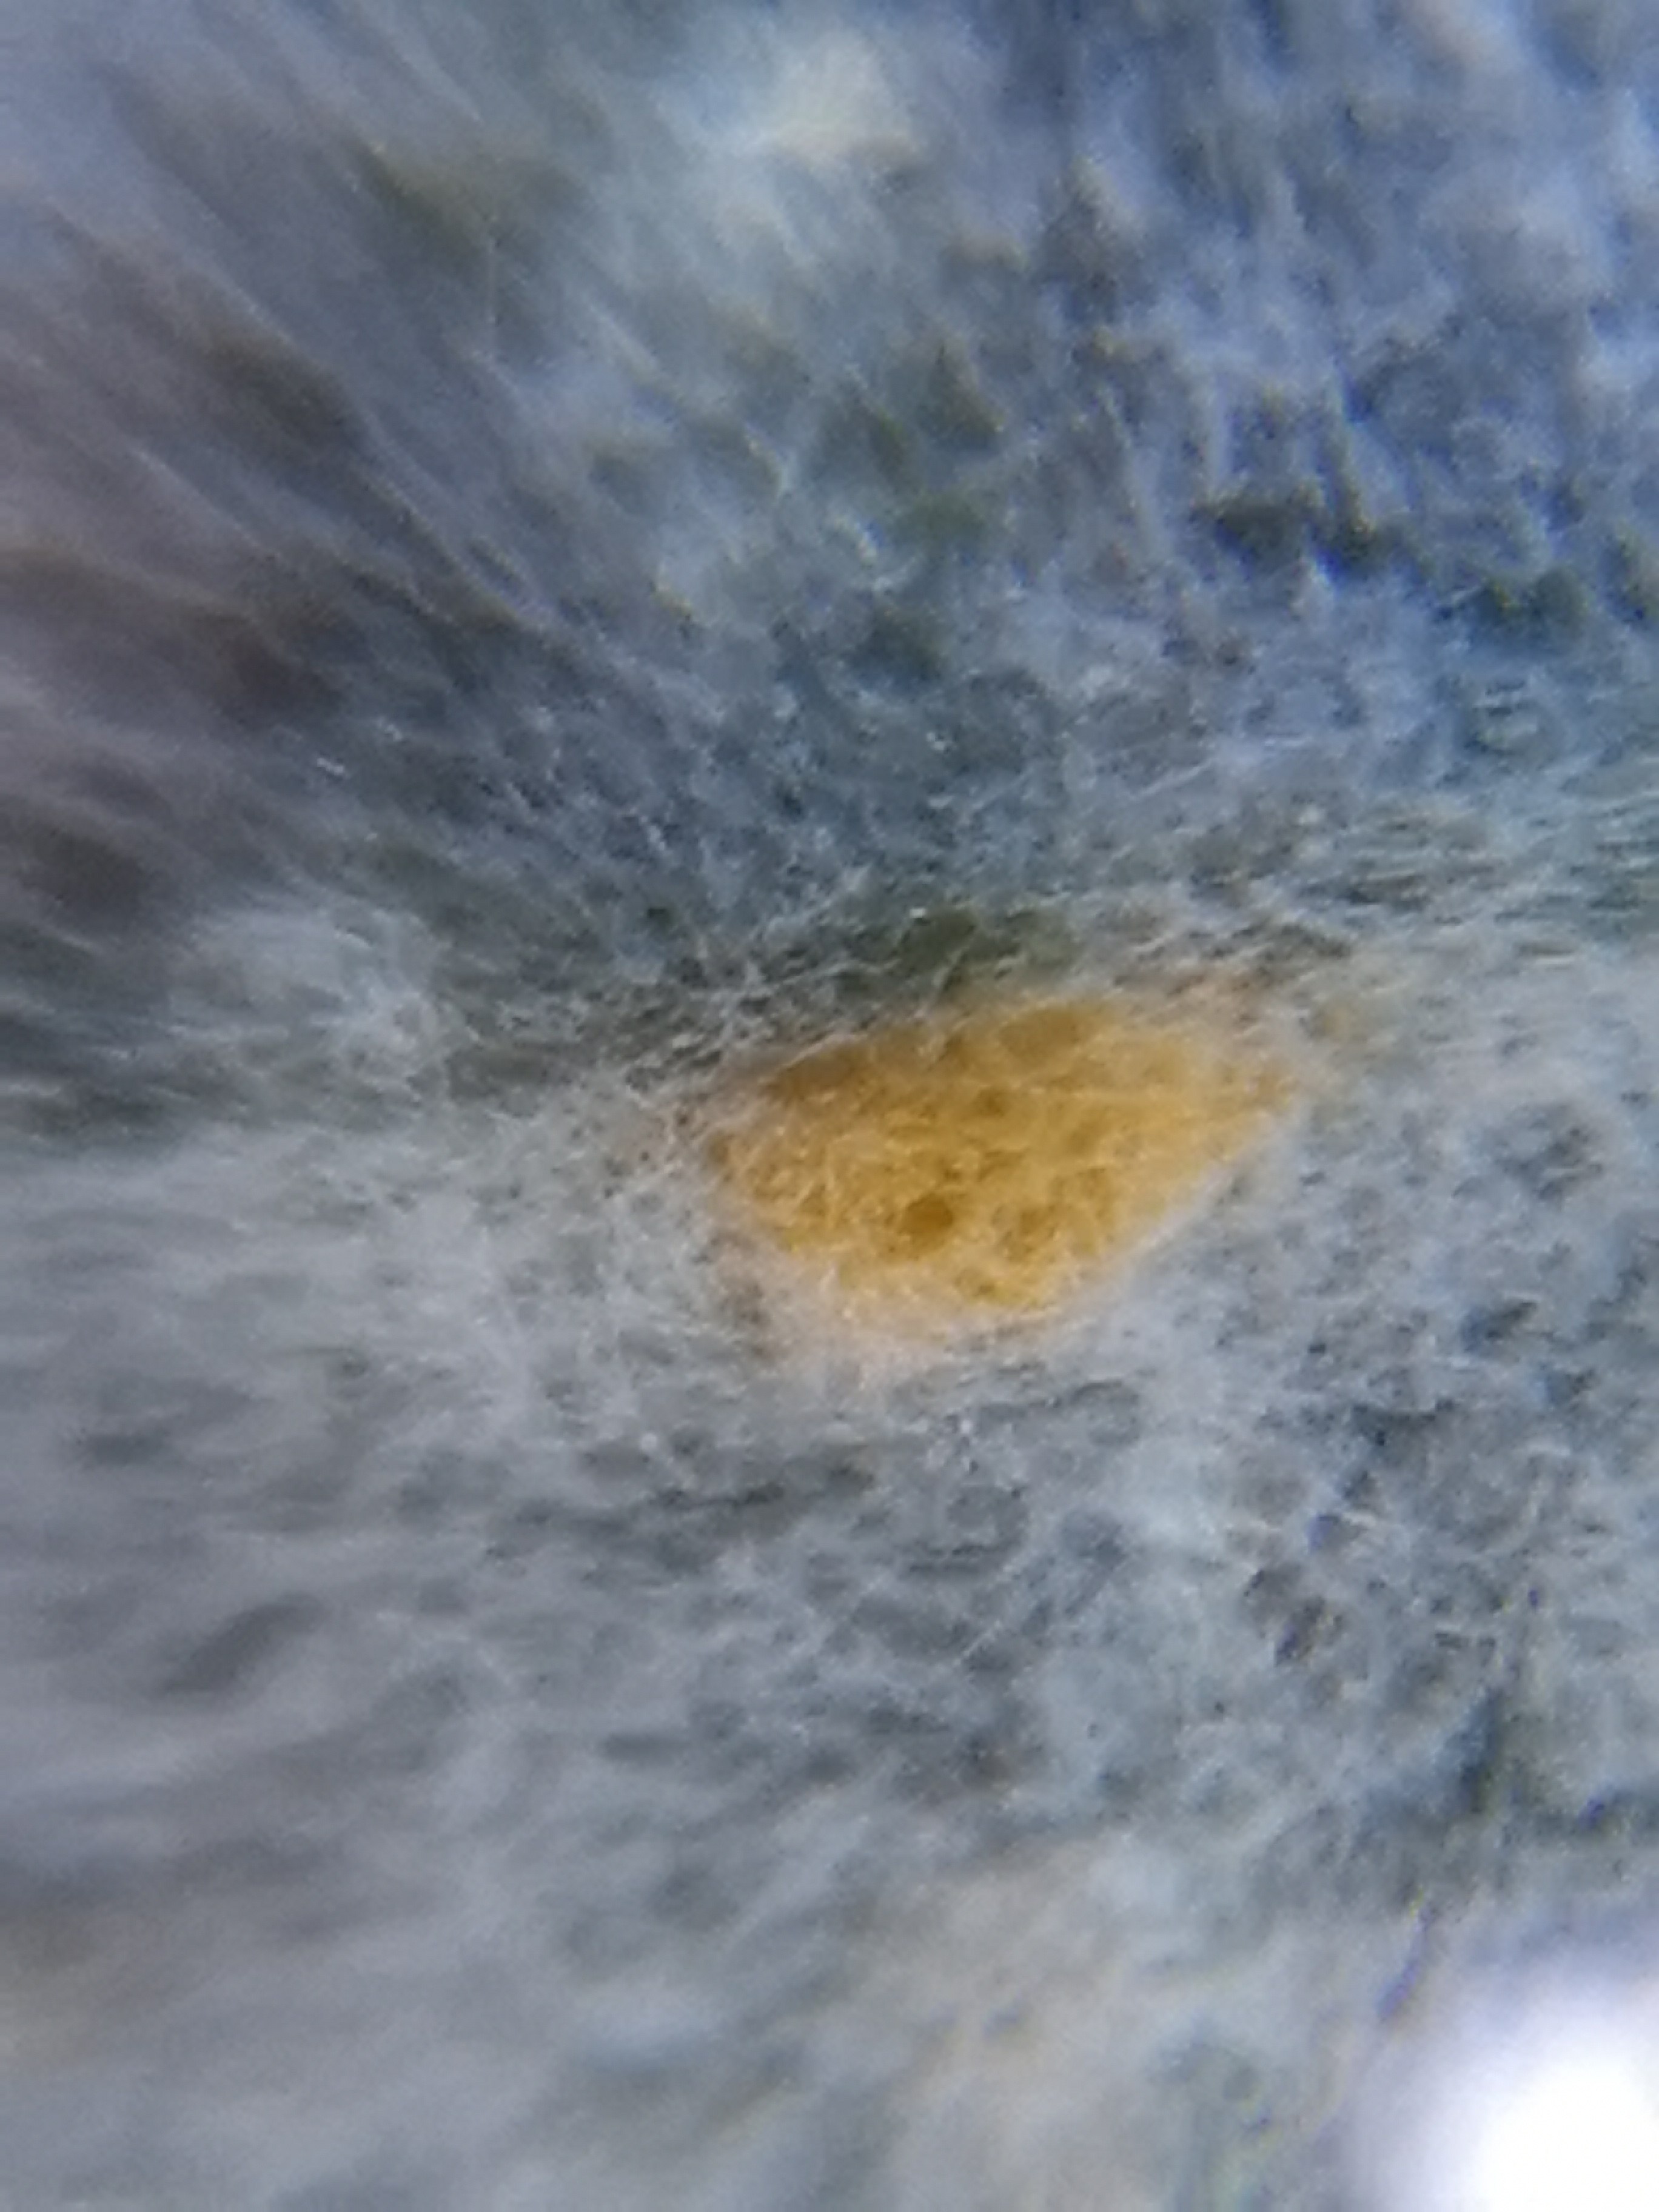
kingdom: Fungi
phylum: Basidiomycota
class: Pucciniomycetes
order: Pucciniales
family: Melampsoraceae
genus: Melampsora
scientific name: Melampsora
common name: skorperust
